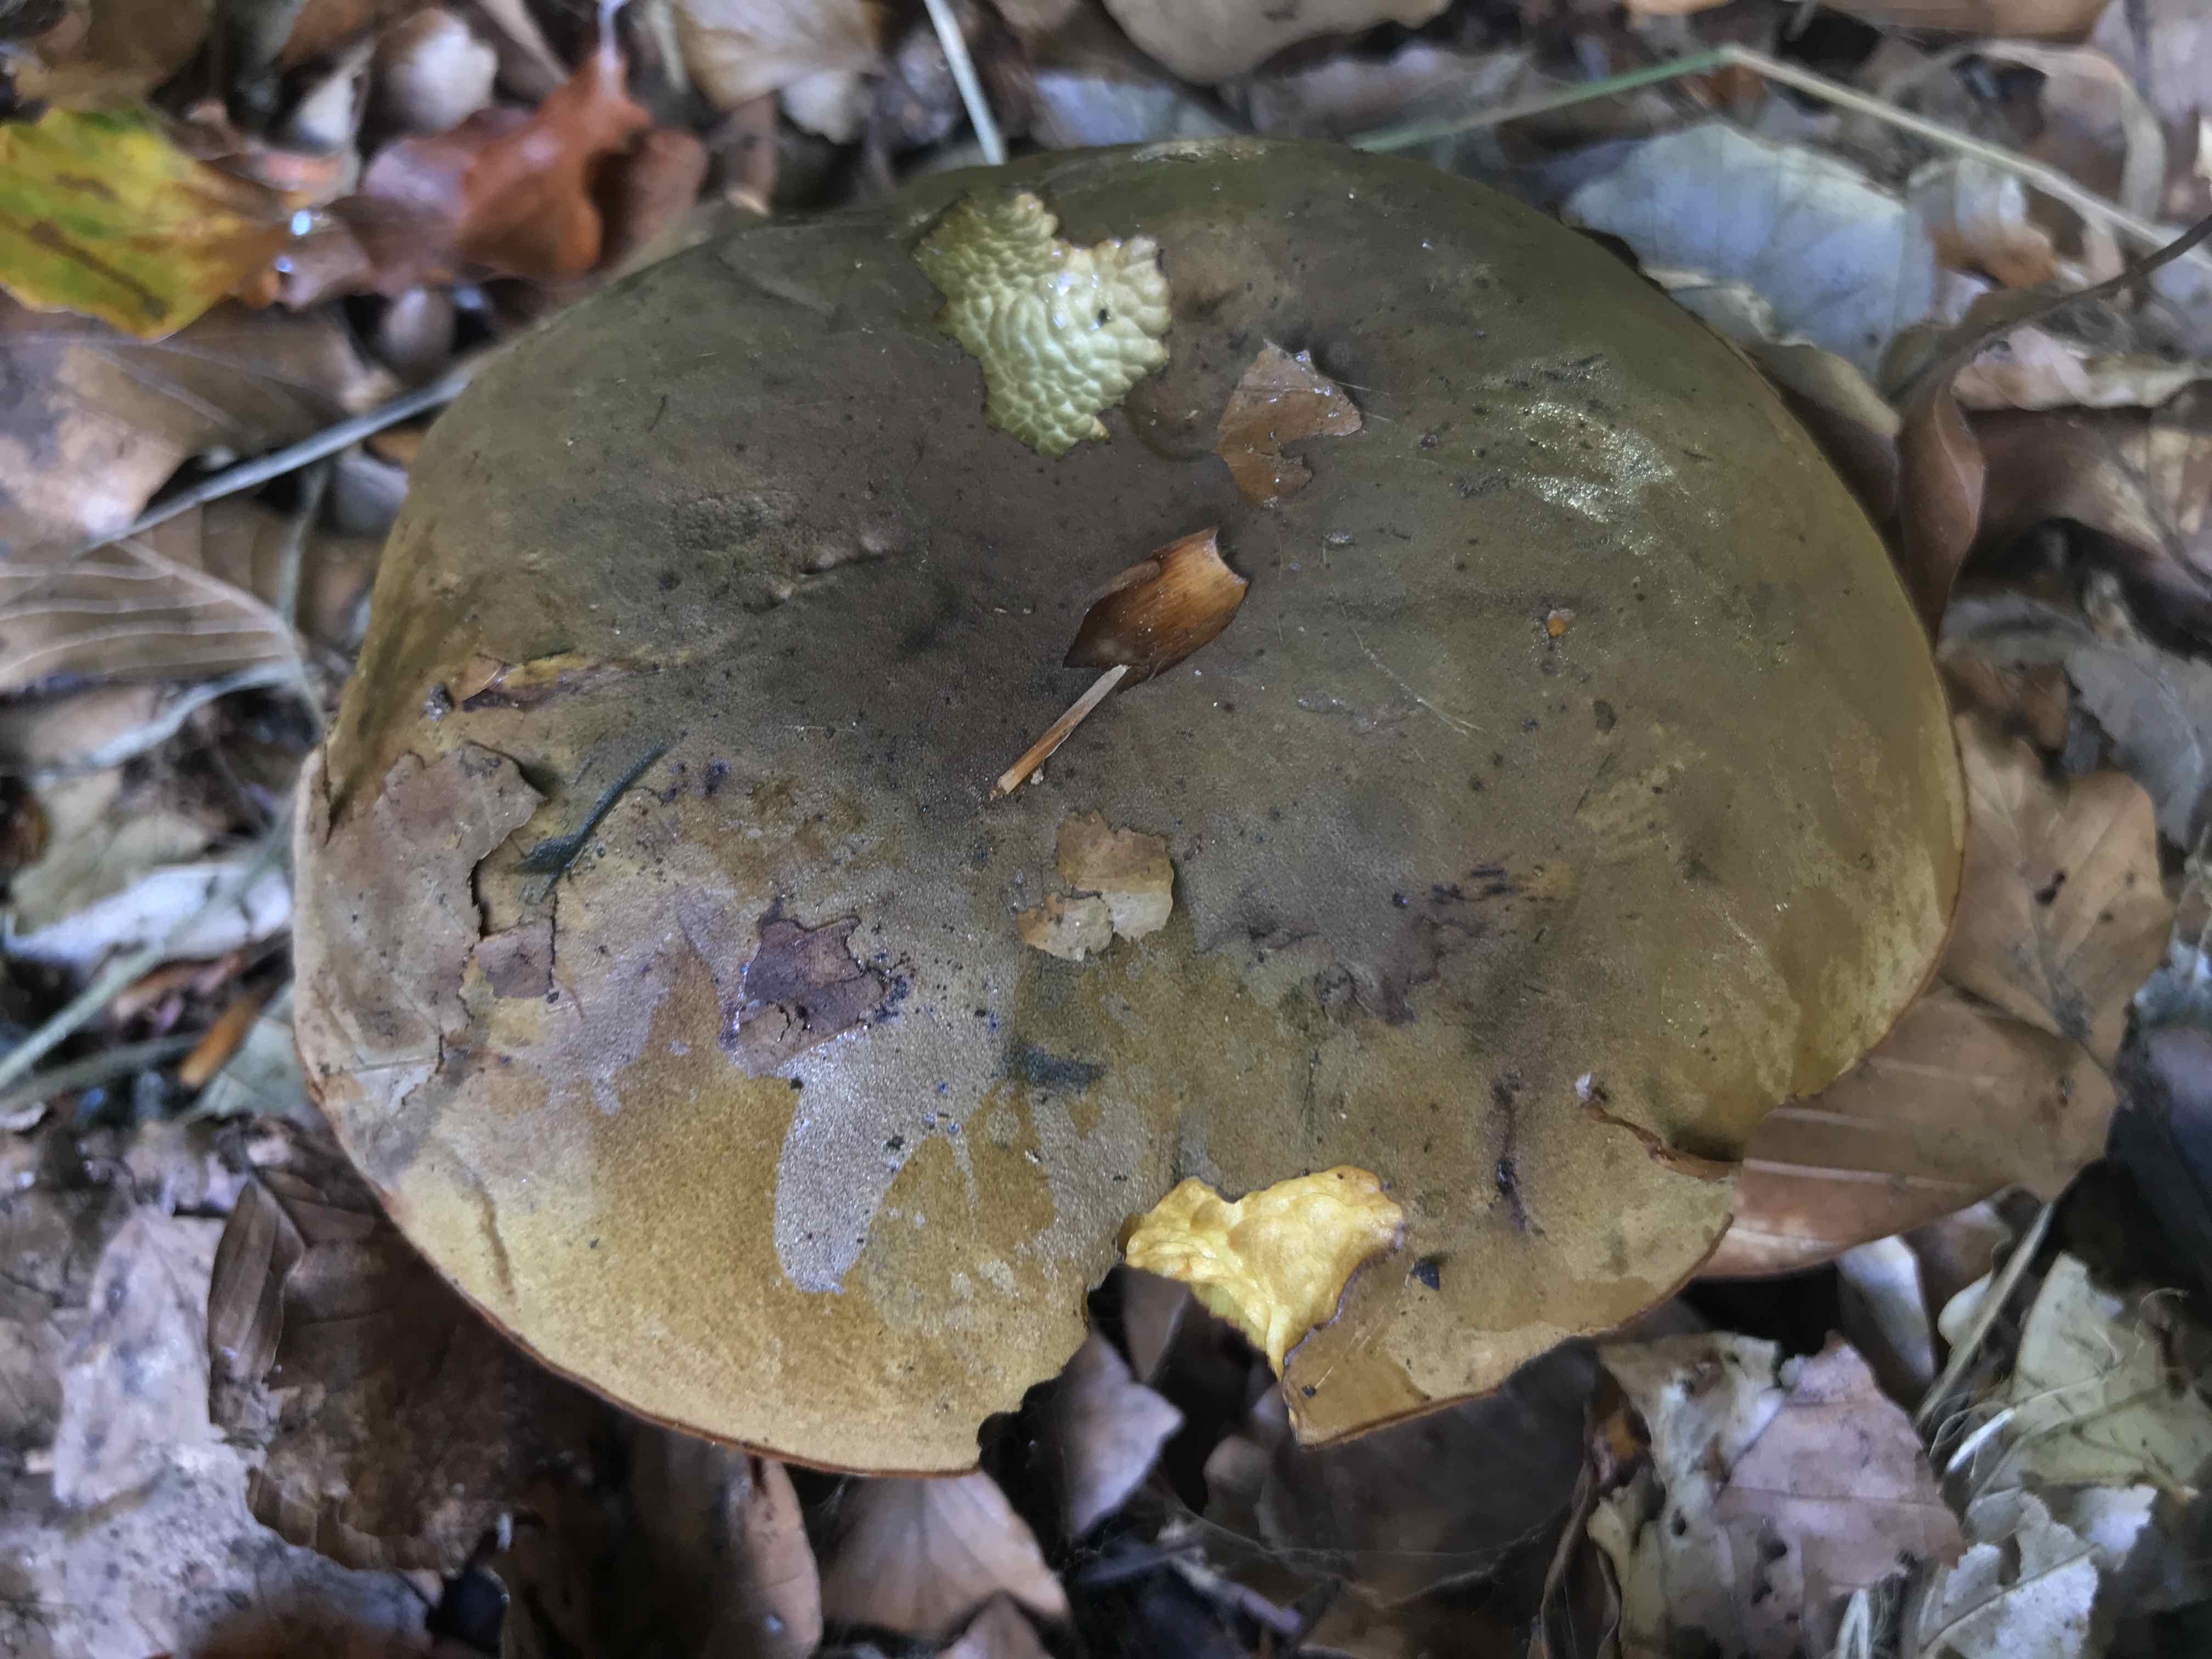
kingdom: Fungi
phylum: Basidiomycota
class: Agaricomycetes
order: Boletales
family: Boletaceae
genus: Neoboletus
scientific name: Neoboletus erythropus
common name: punktstokket indigorørhat
